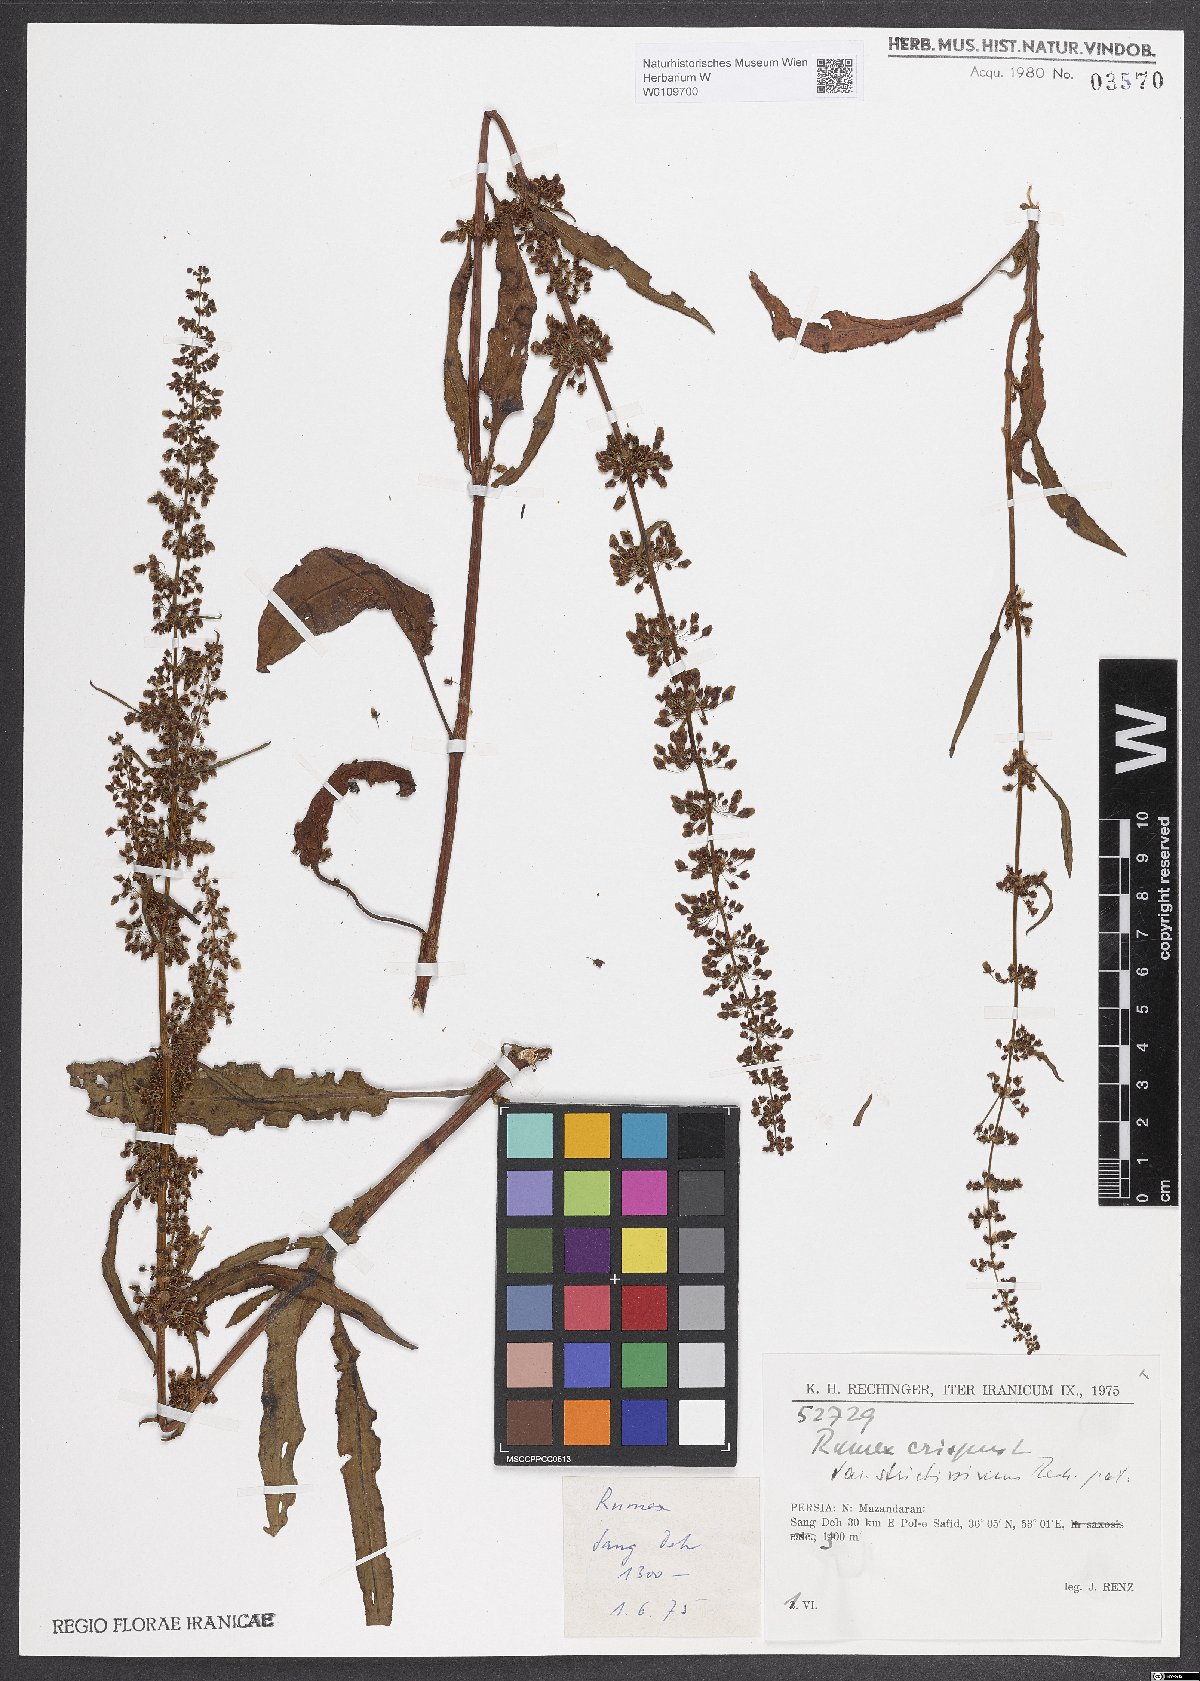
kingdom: Plantae
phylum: Tracheophyta
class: Magnoliopsida
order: Caryophyllales
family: Polygonaceae
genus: Rumex
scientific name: Rumex crispus
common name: Curled dock
